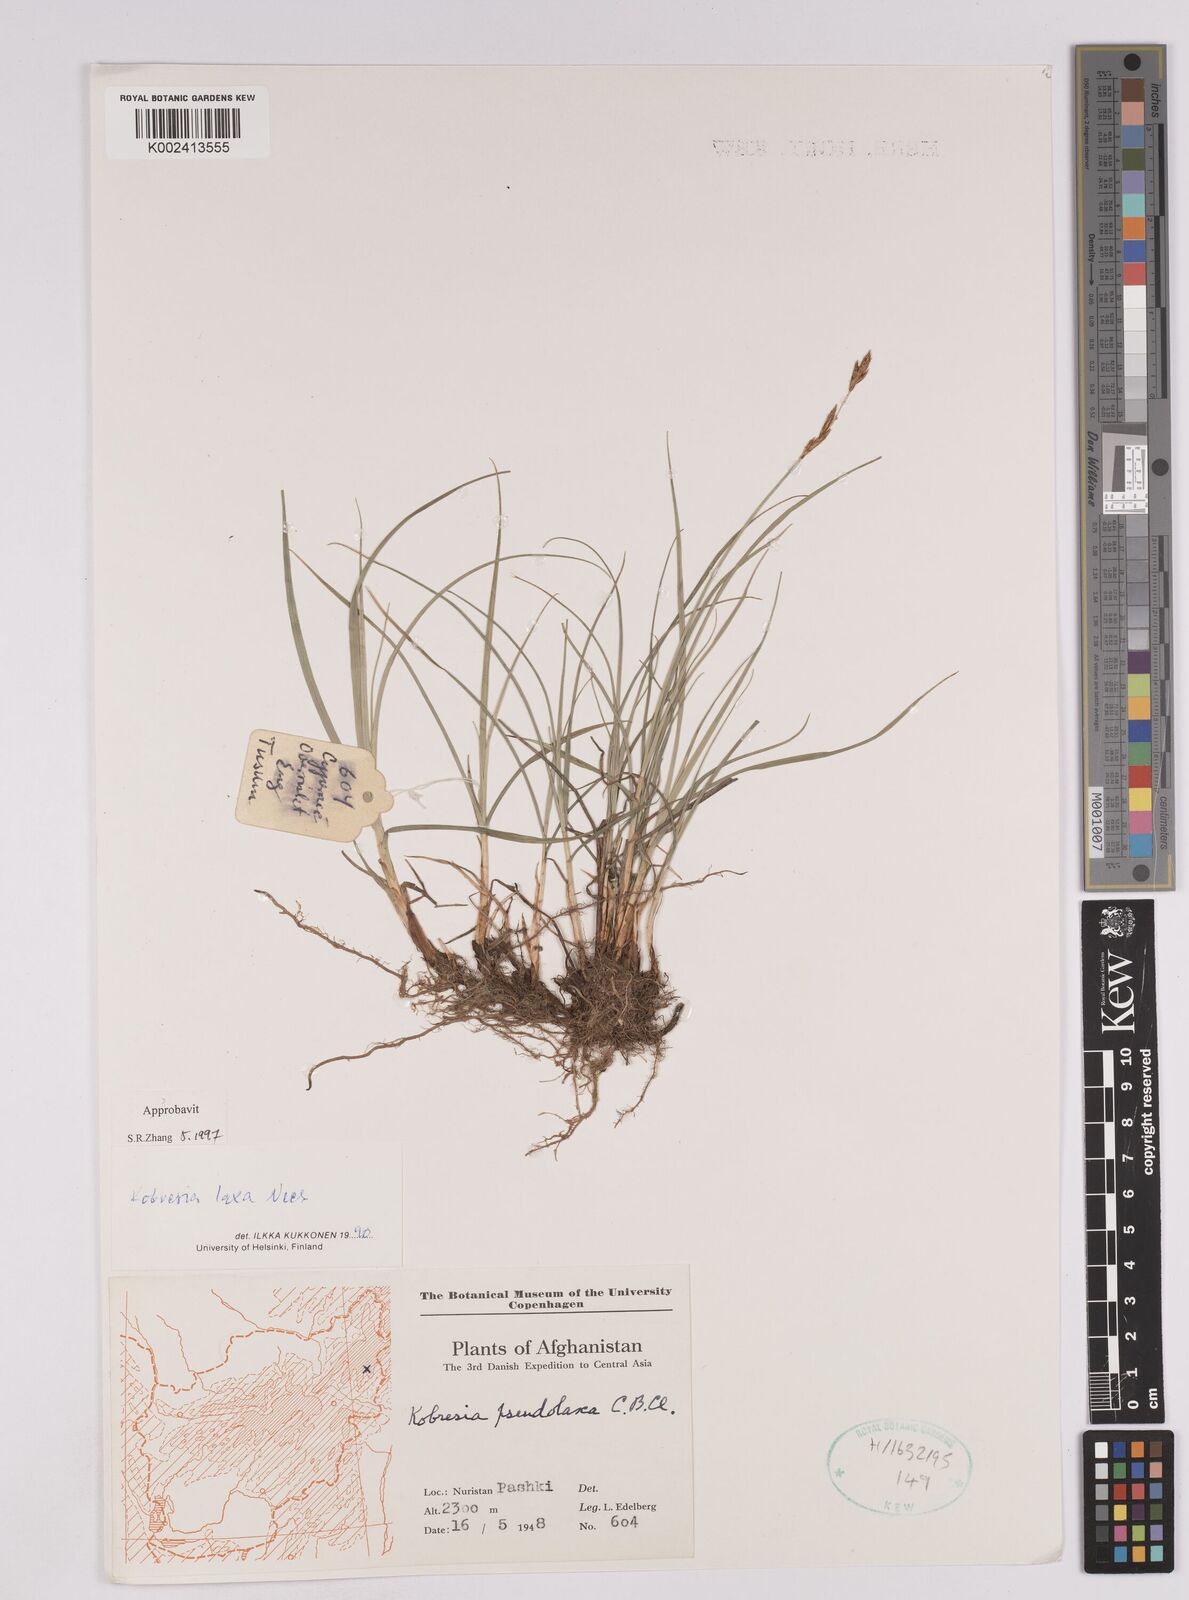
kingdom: Plantae
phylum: Tracheophyta
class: Liliopsida
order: Poales
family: Cyperaceae
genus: Carex
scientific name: Carex pseudolaxa
